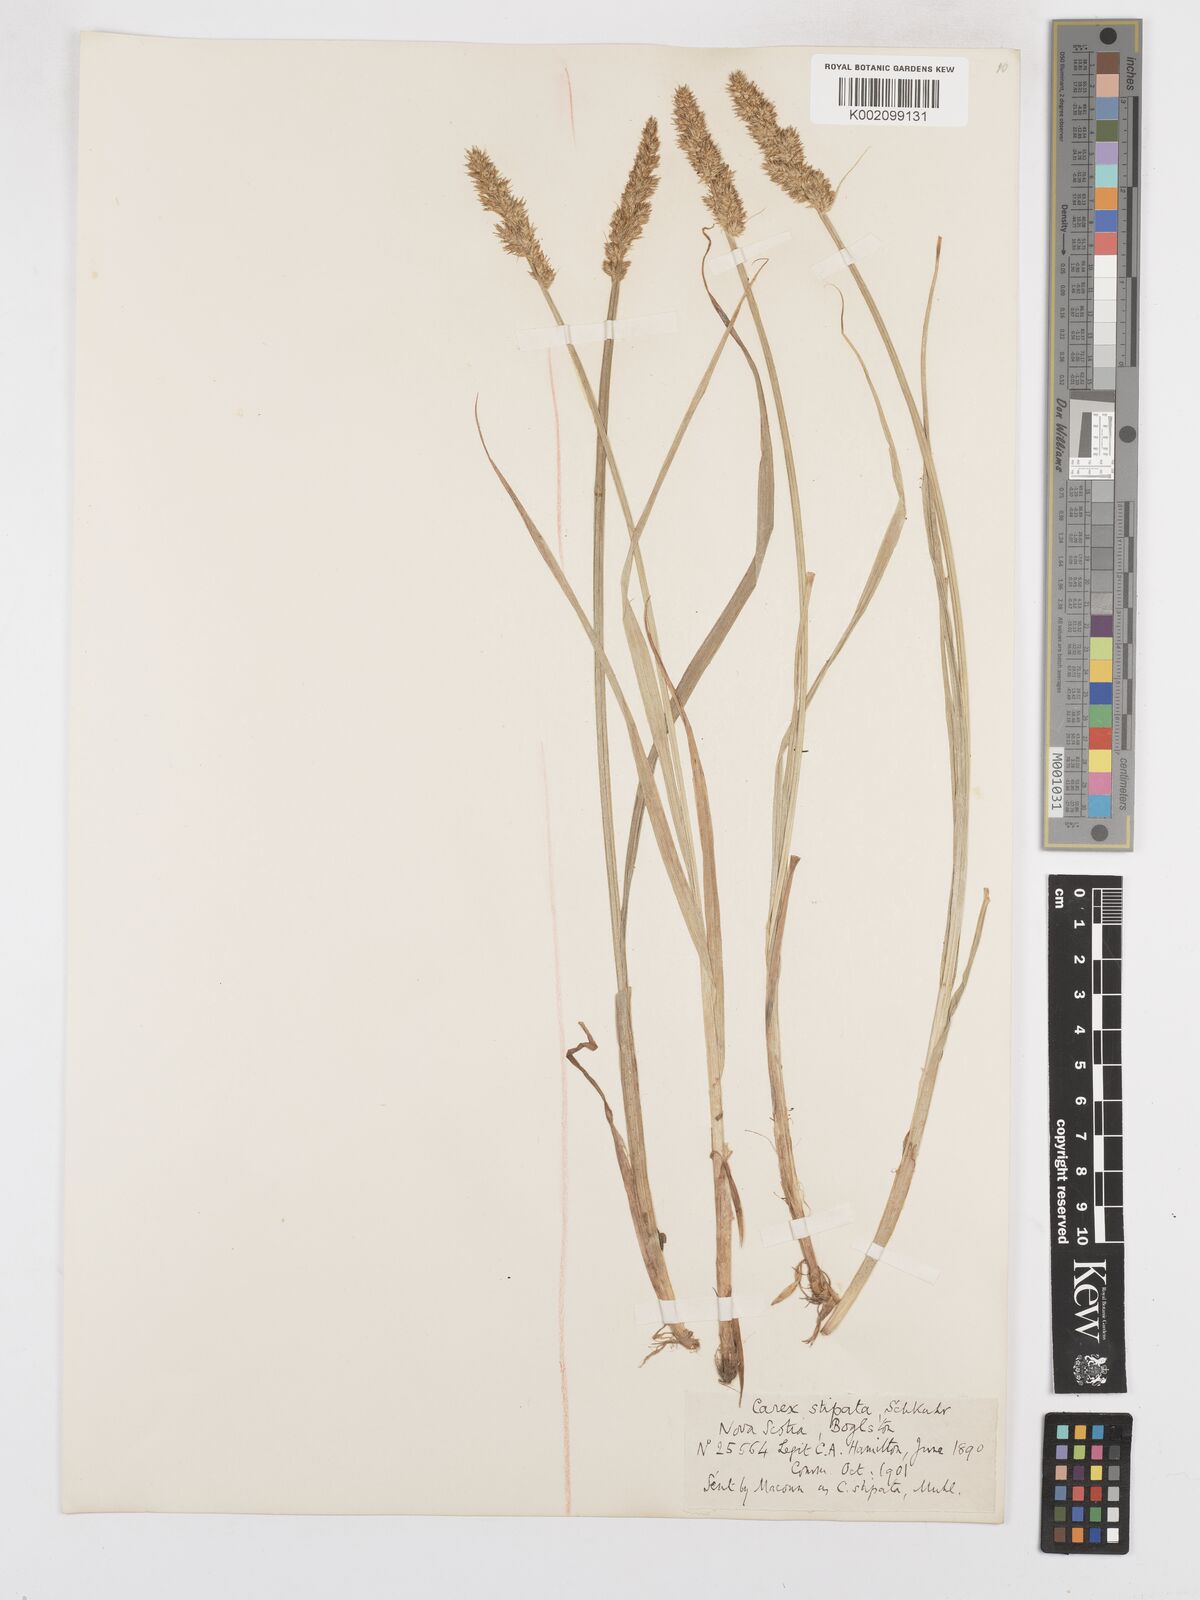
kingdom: Plantae
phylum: Tracheophyta
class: Liliopsida
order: Poales
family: Cyperaceae
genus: Carex
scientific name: Carex stipata
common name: Awl-fruited sedge
